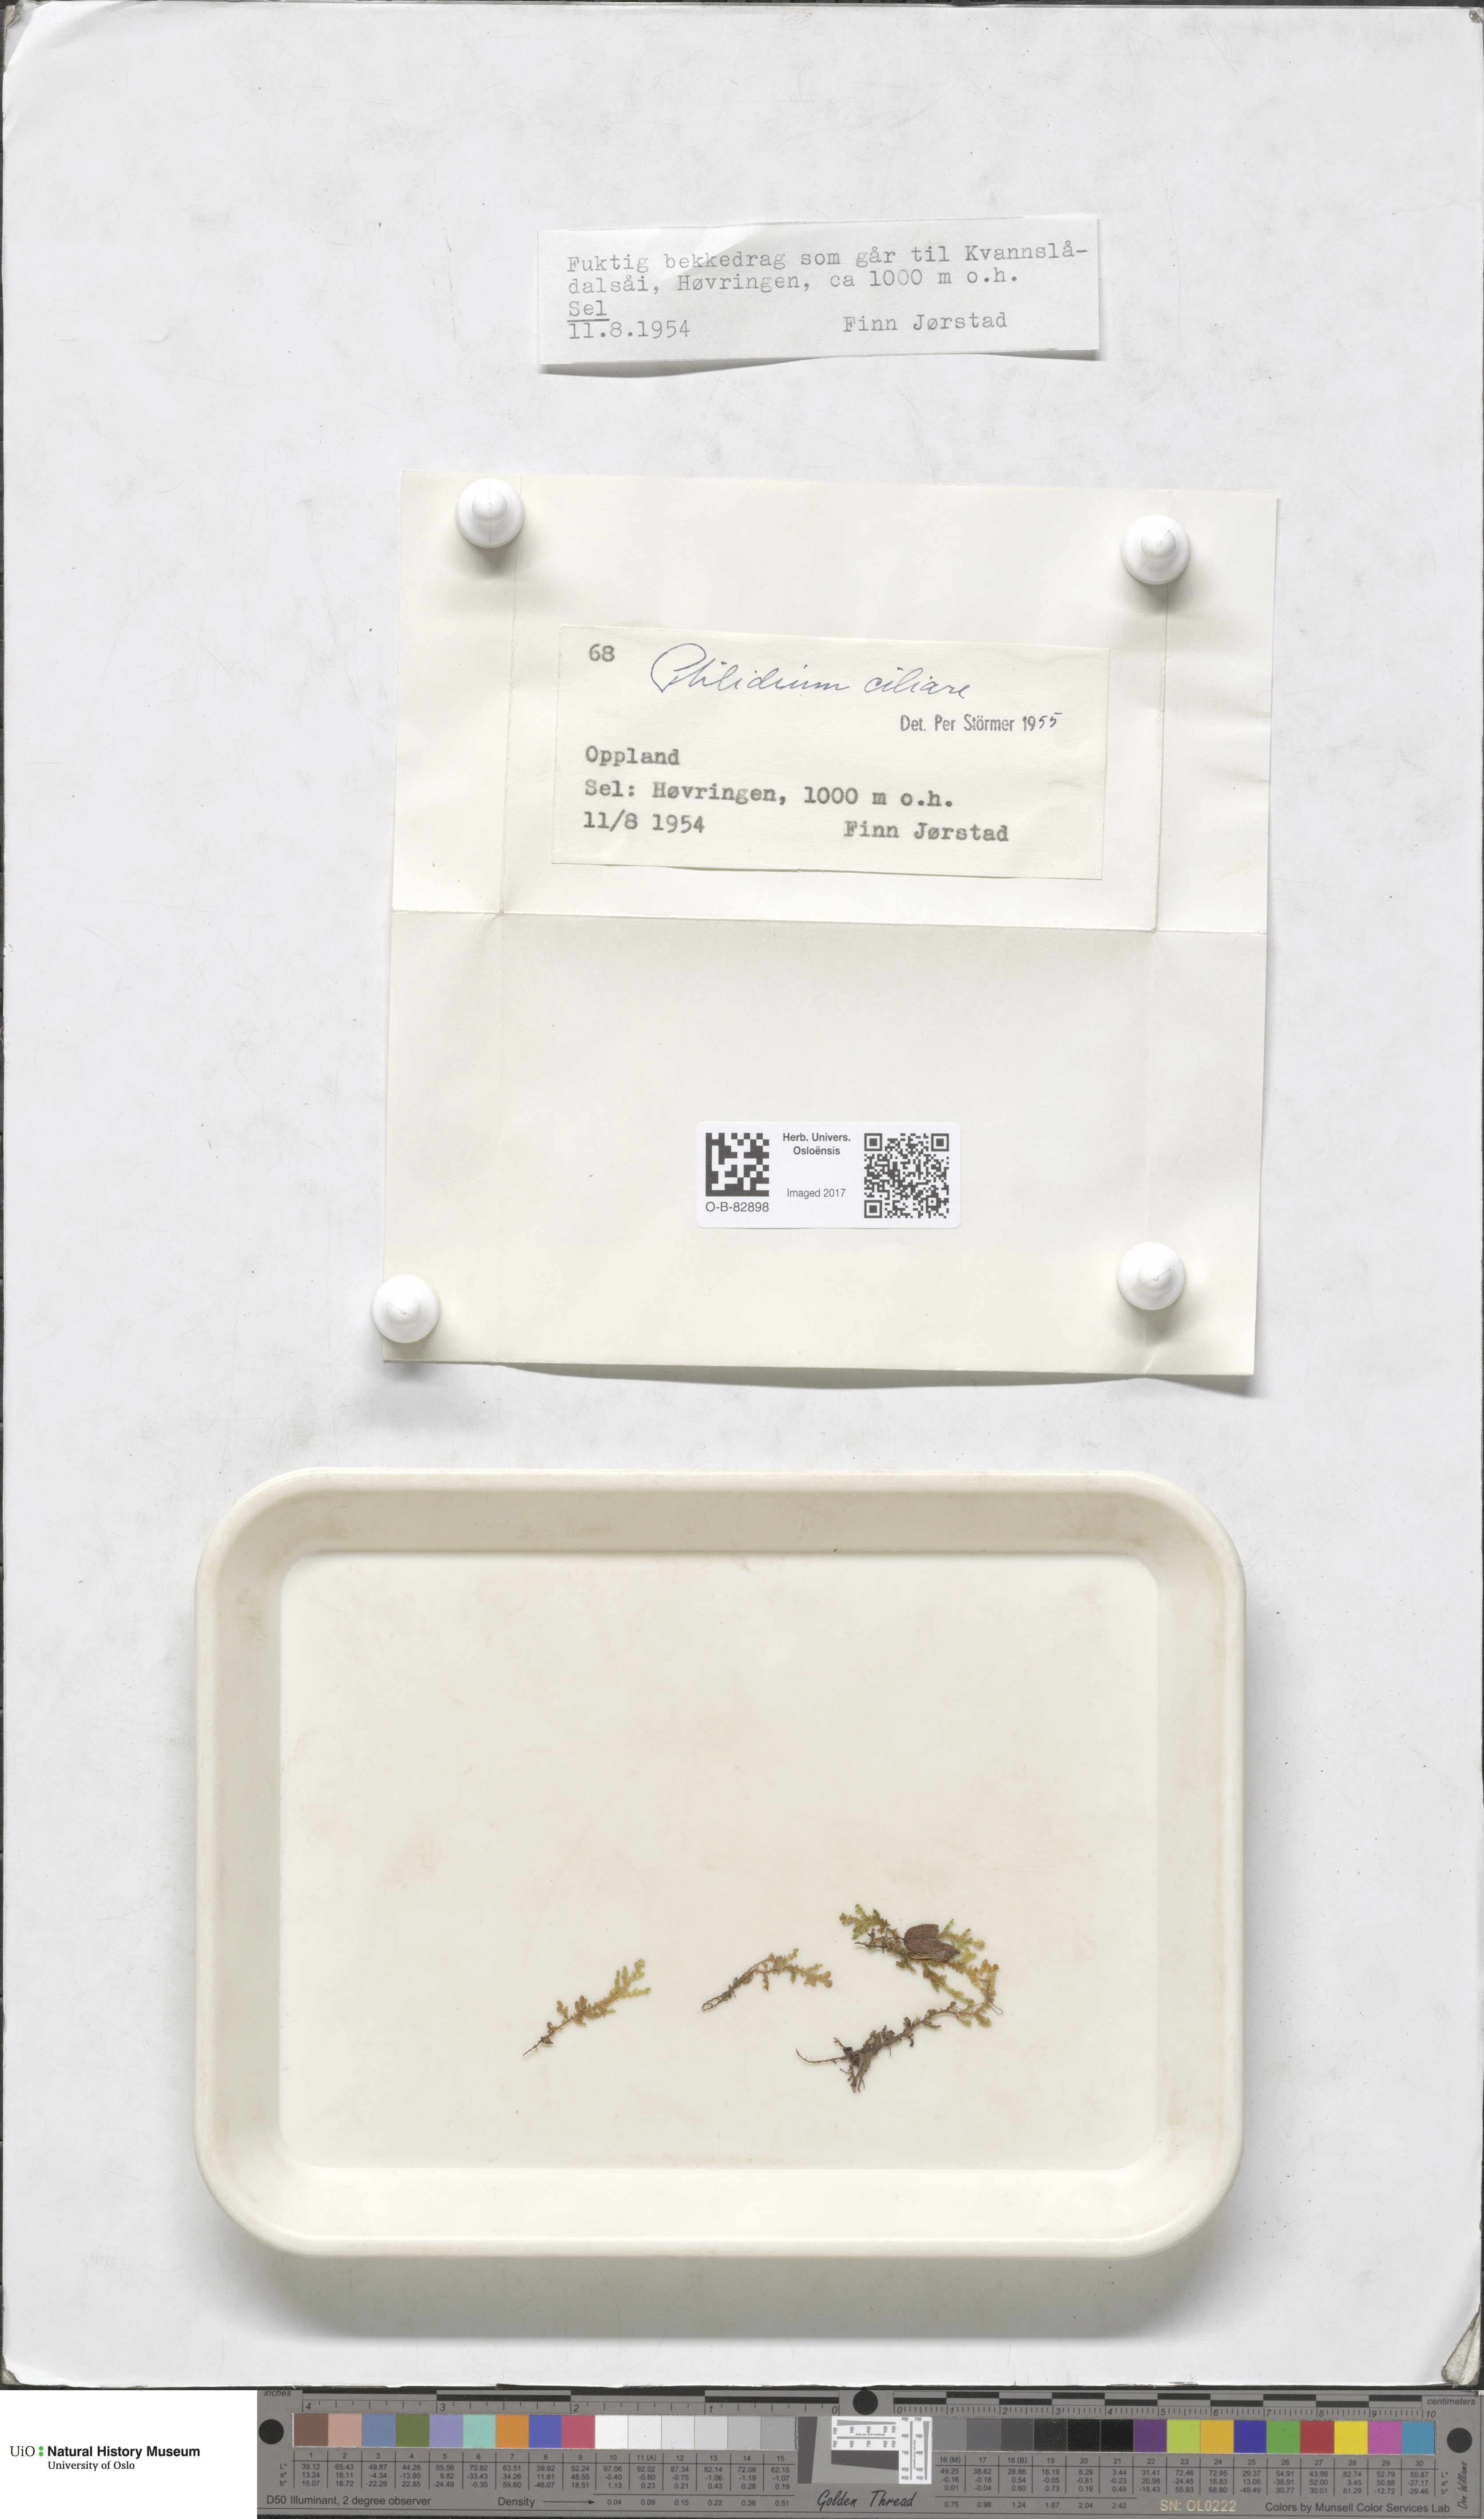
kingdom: Plantae
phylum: Marchantiophyta
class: Jungermanniopsida
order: Ptilidiales
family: Ptilidiaceae
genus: Ptilidium
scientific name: Ptilidium ciliare
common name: Ciliate fringewort
